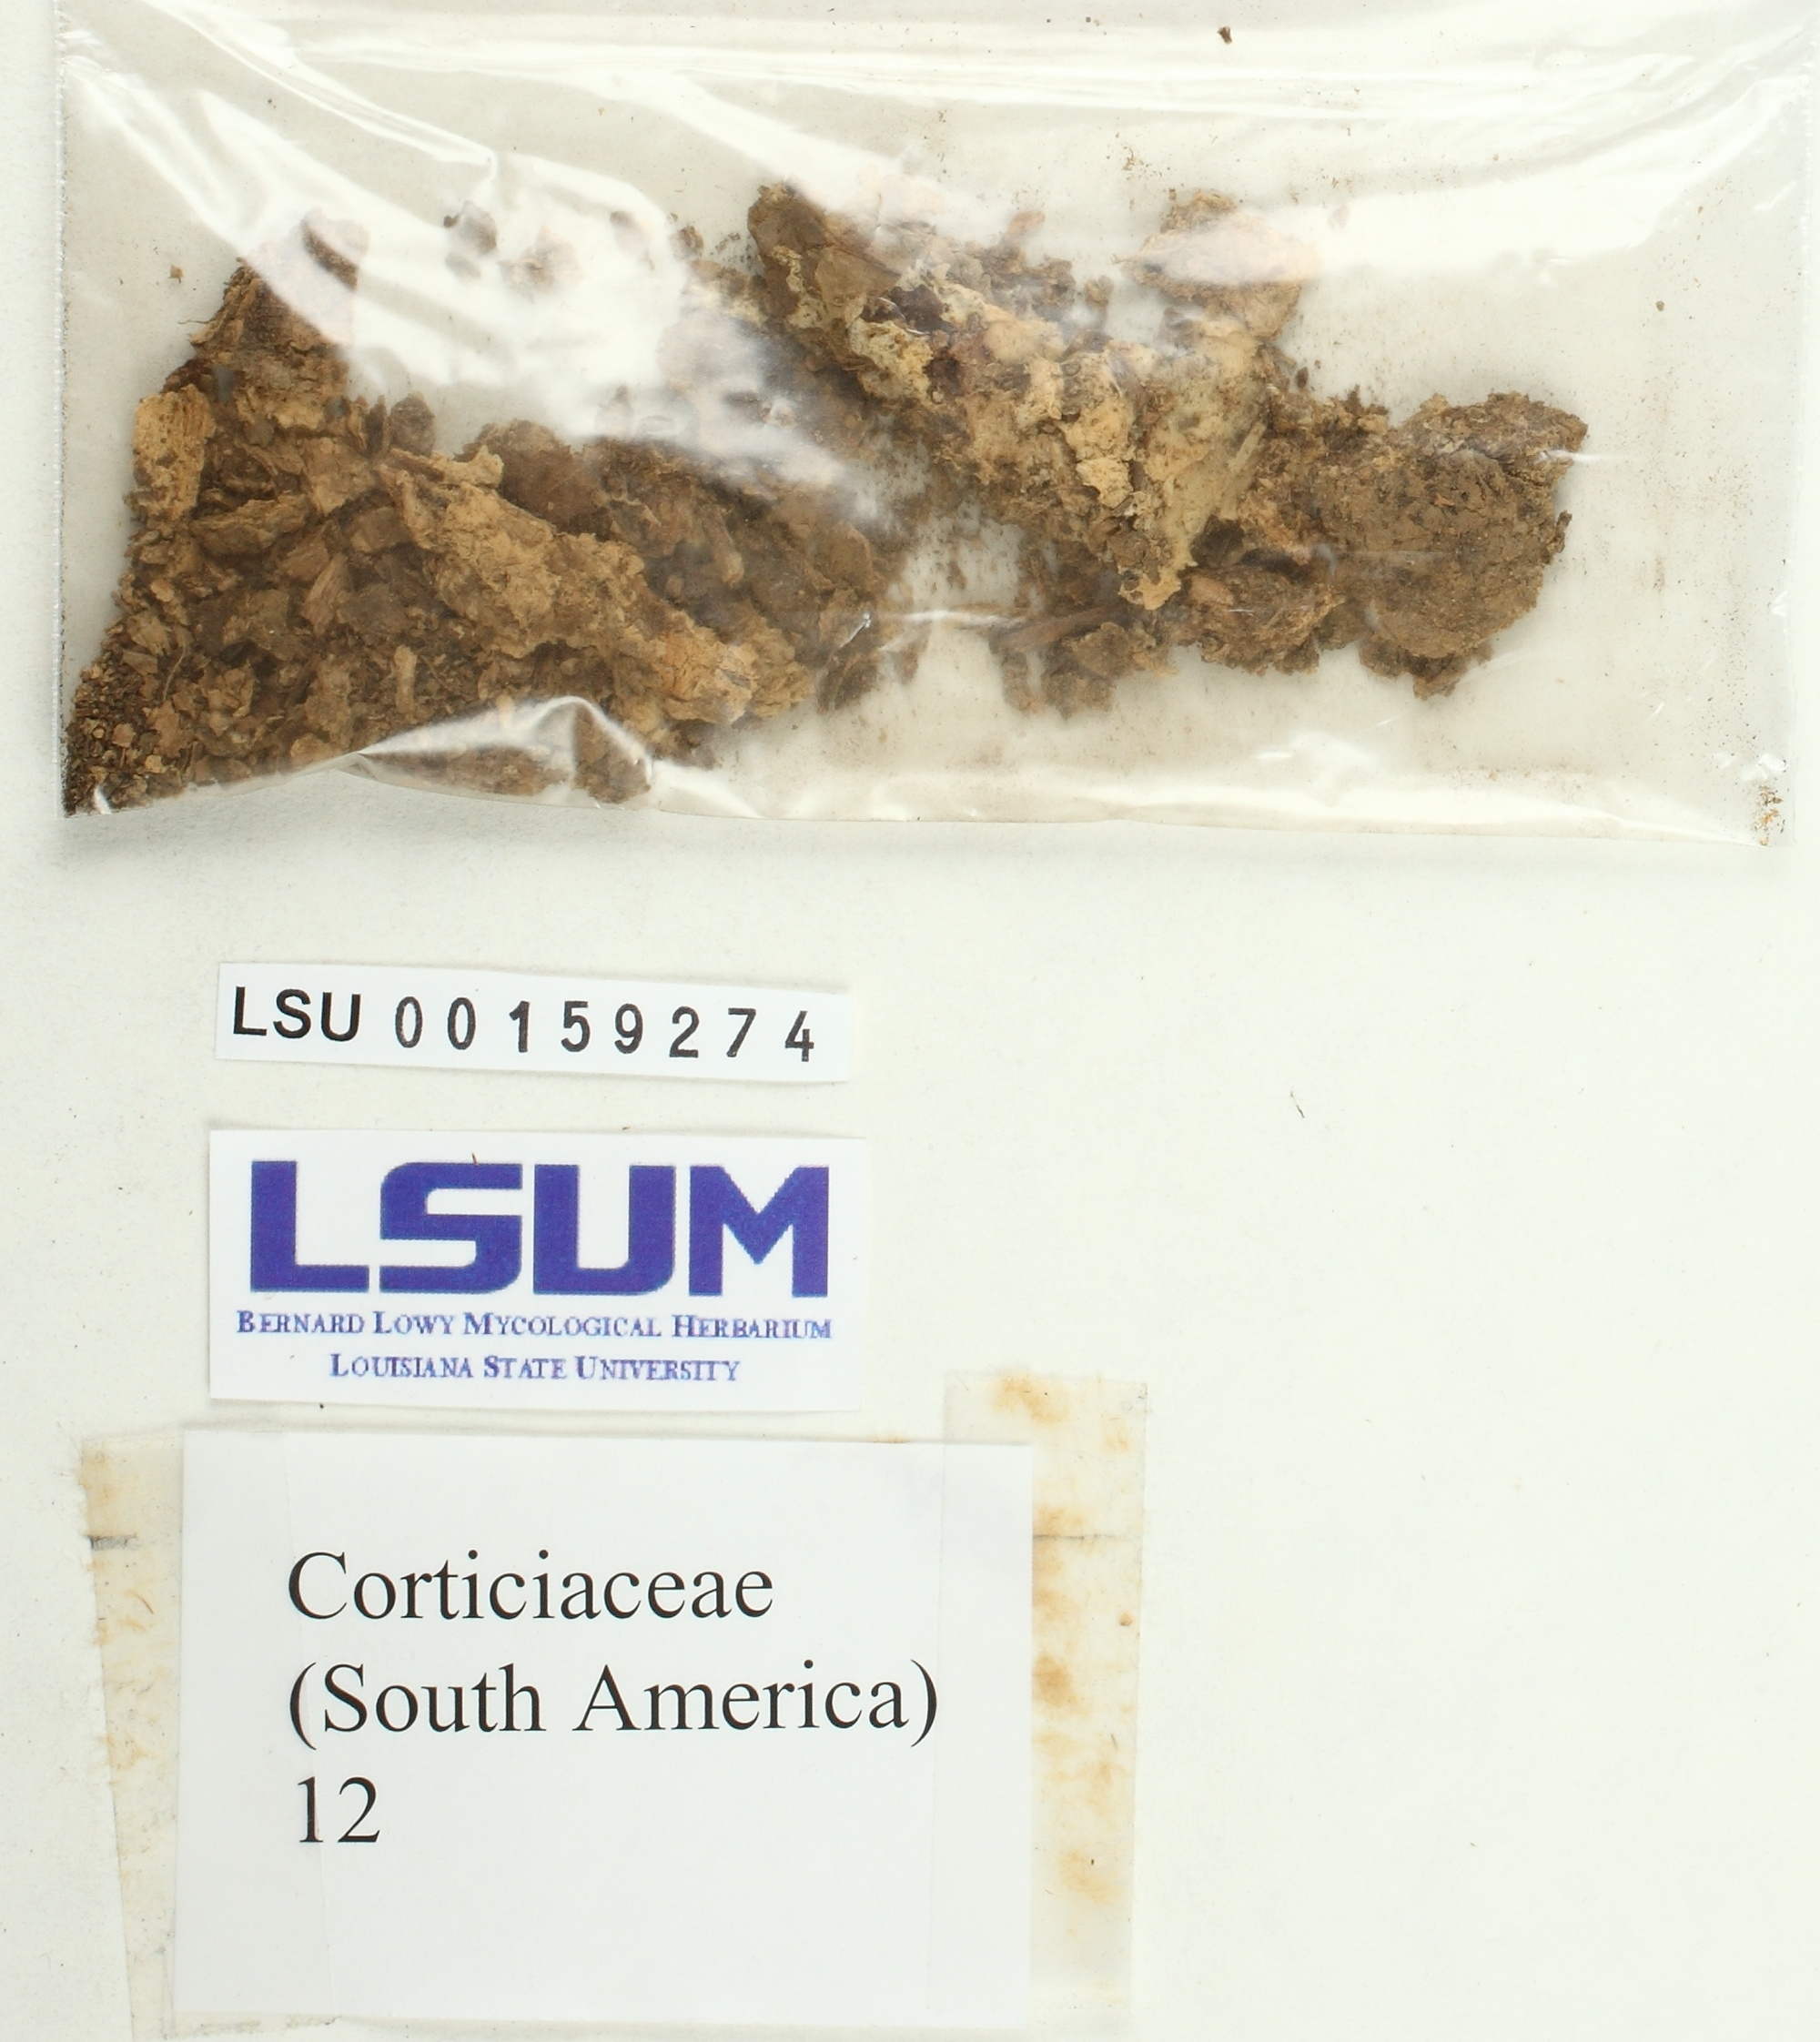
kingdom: Fungi
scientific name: Fungi
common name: Fungi
